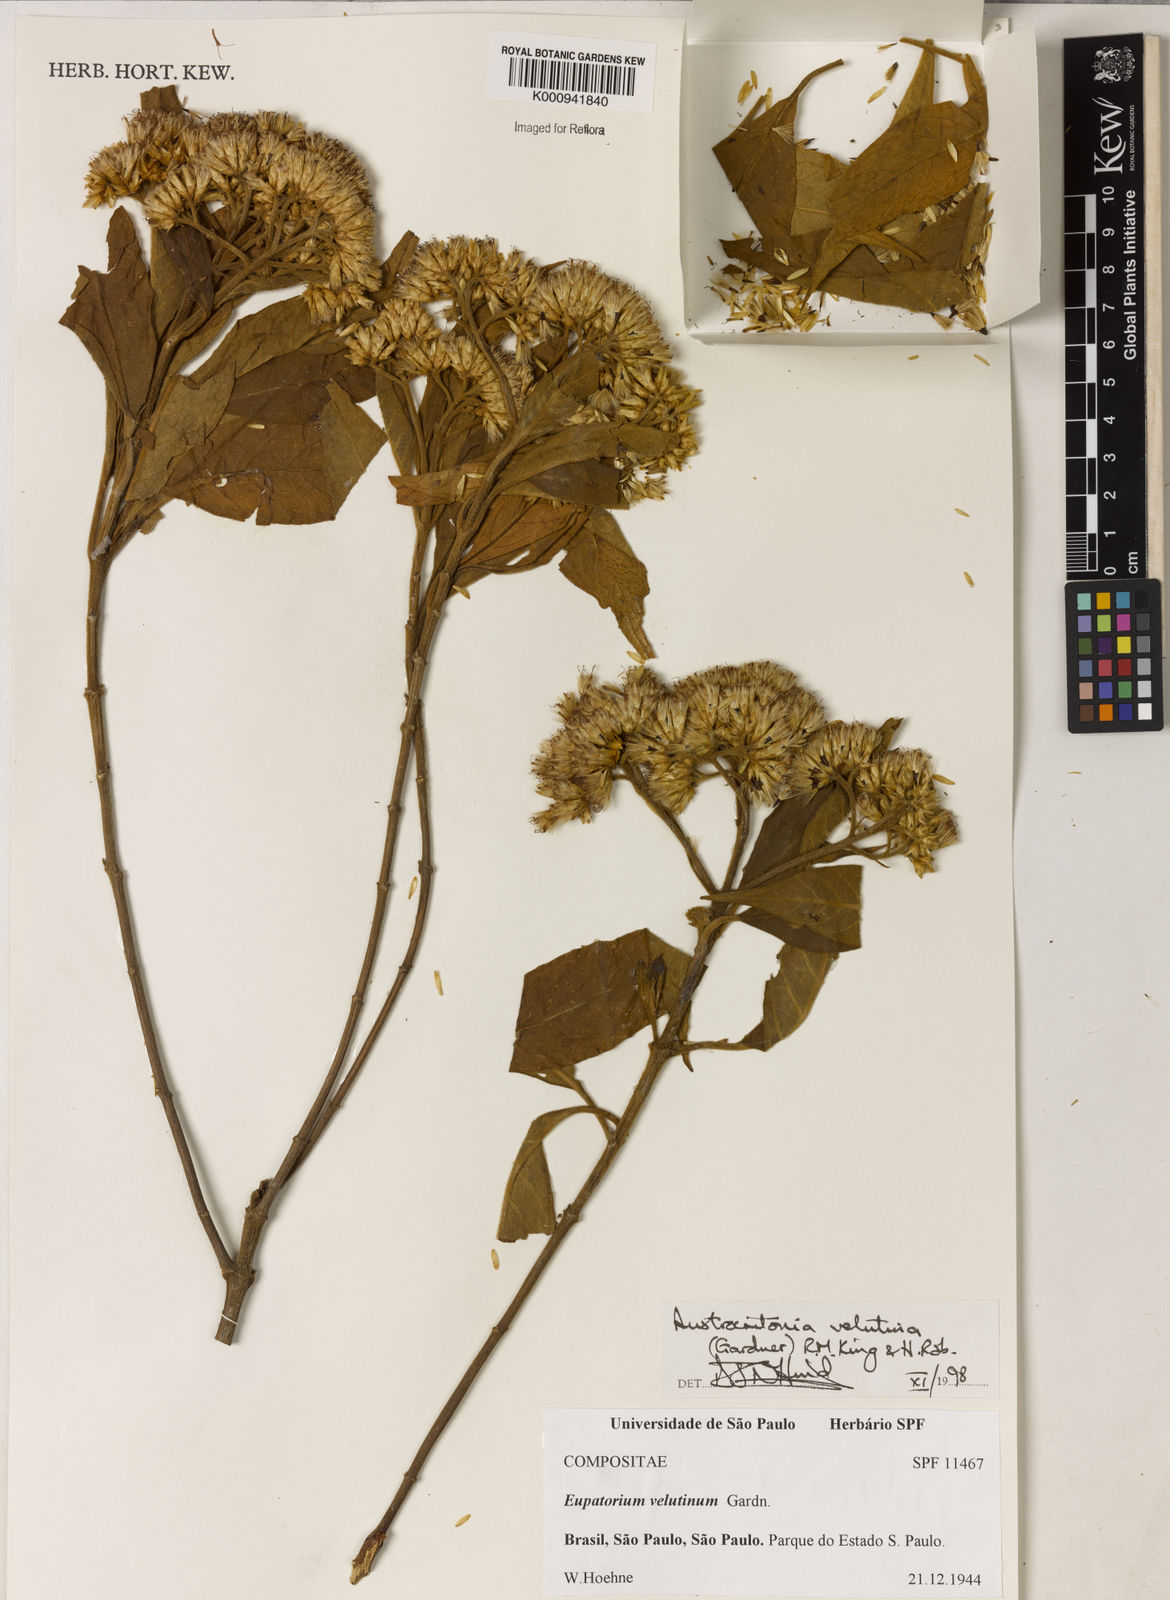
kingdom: Plantae
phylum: Tracheophyta
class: Magnoliopsida
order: Asterales
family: Asteraceae
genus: Austrocritonia
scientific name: Austrocritonia velutina
